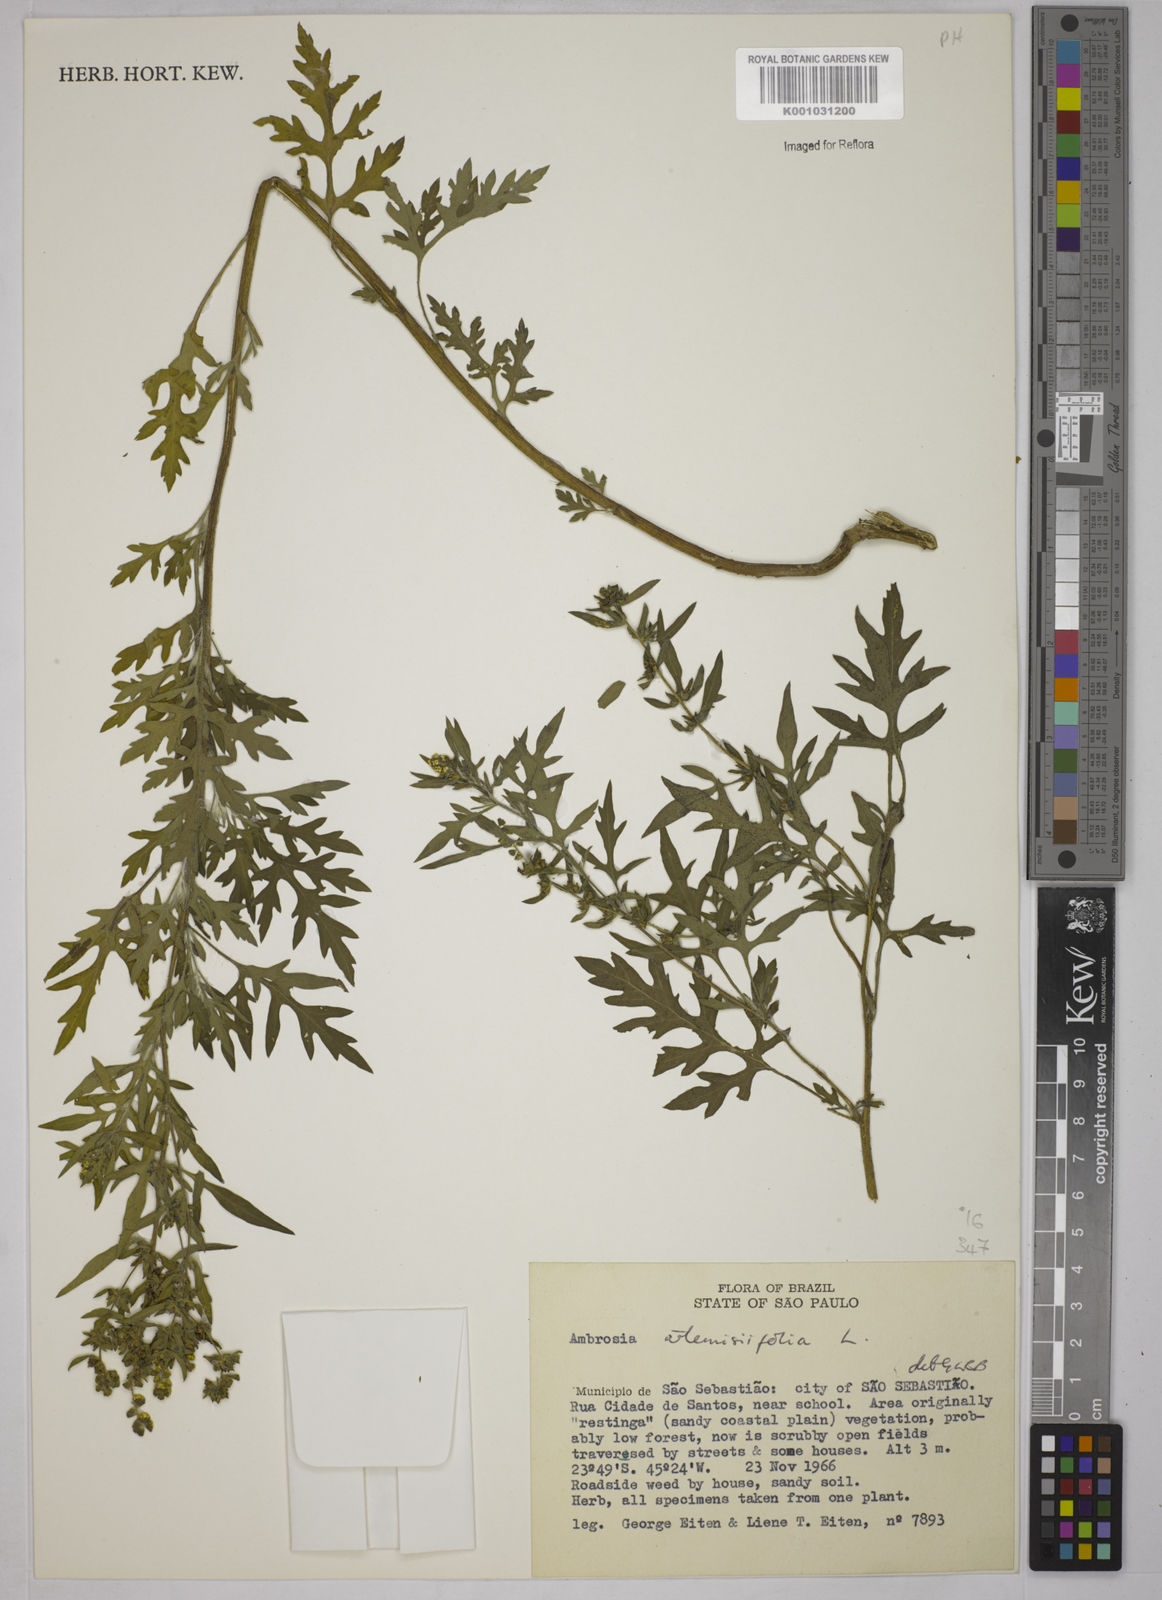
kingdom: Plantae
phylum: Tracheophyta
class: Magnoliopsida
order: Asterales
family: Asteraceae
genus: Ambrosia
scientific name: Ambrosia artemisiifolia
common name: Annual ragweed
